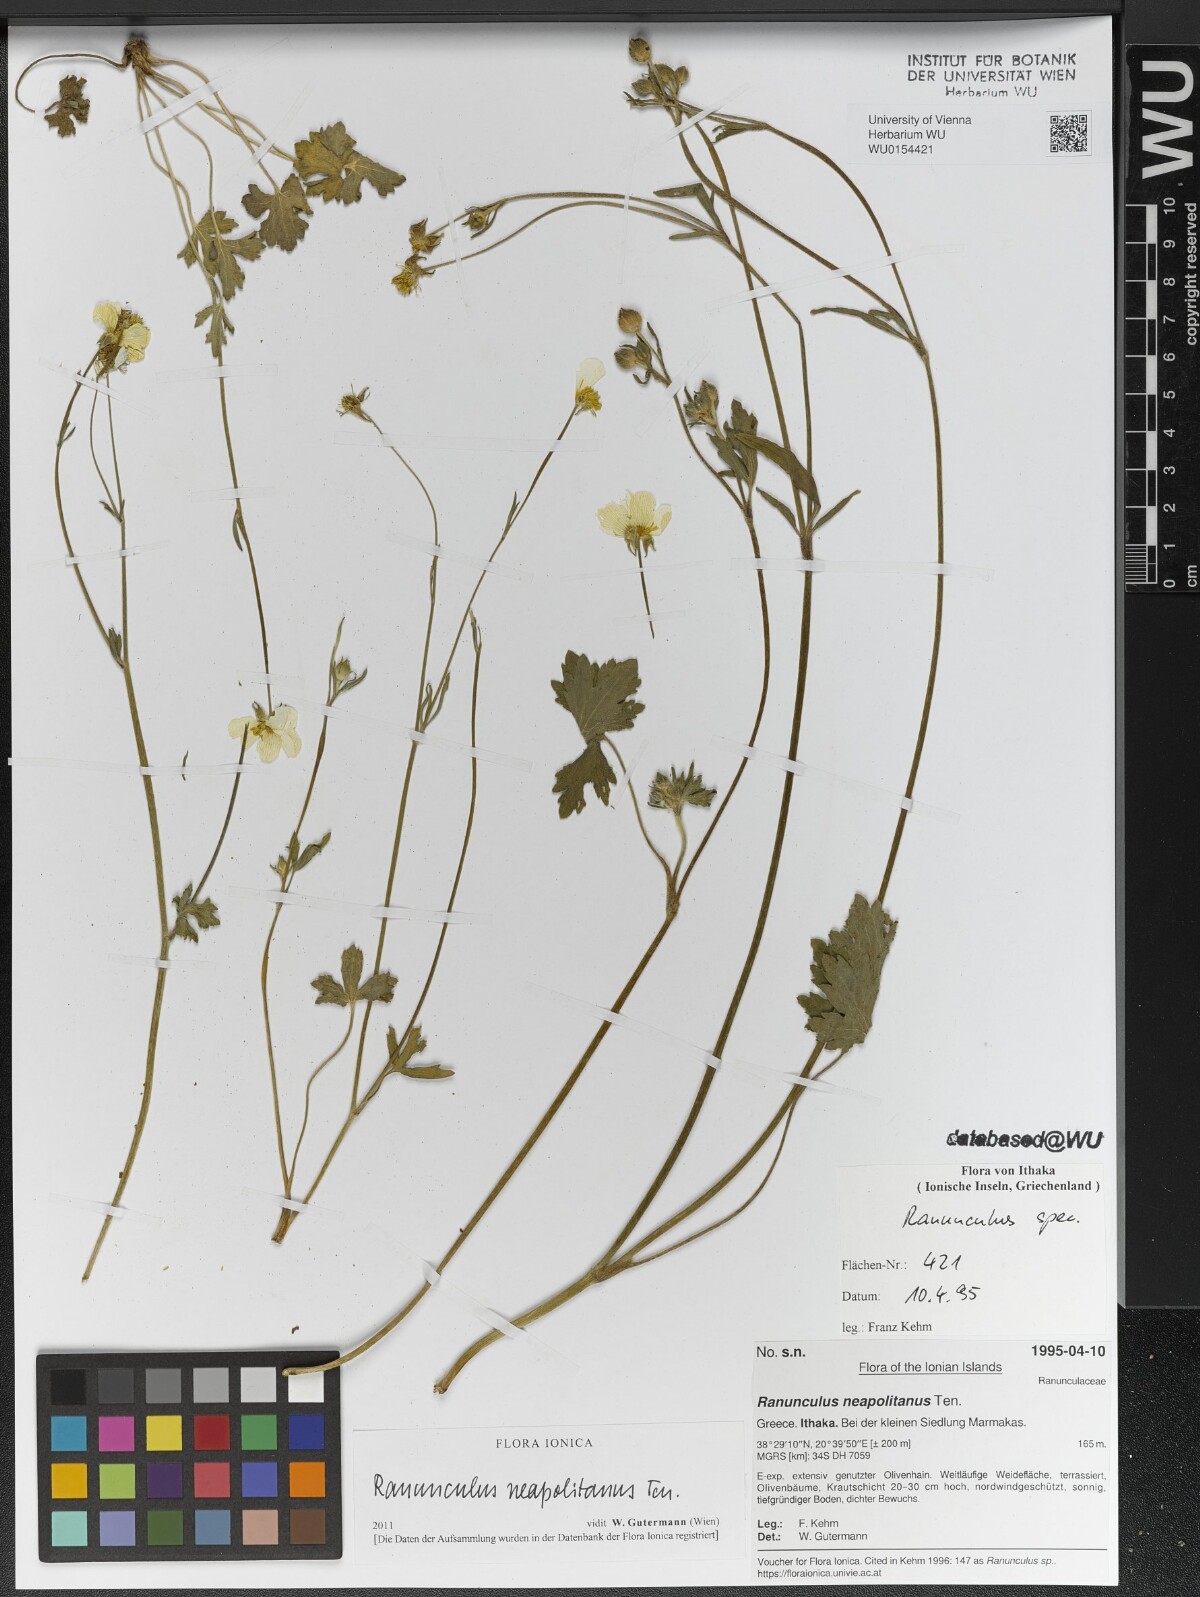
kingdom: Plantae
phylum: Tracheophyta
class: Magnoliopsida
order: Ranunculales
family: Ranunculaceae
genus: Ranunculus
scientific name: Ranunculus neapolitanus
